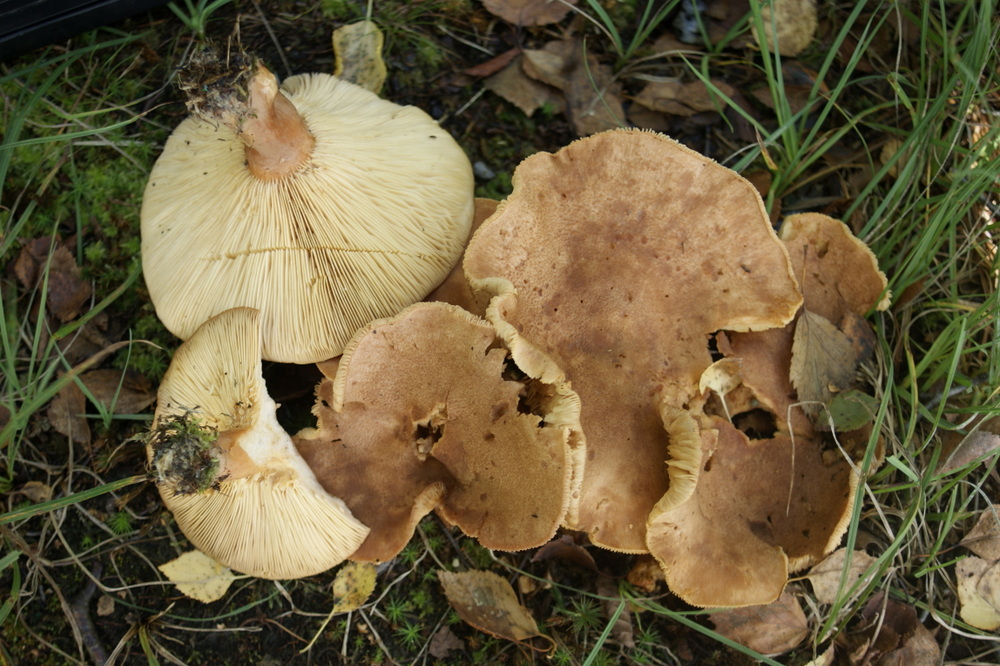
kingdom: Fungi
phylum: Basidiomycota
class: Agaricomycetes
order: Russulales
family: Russulaceae
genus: Lactarius
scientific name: Lactarius helvus
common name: mose-mælkehat
